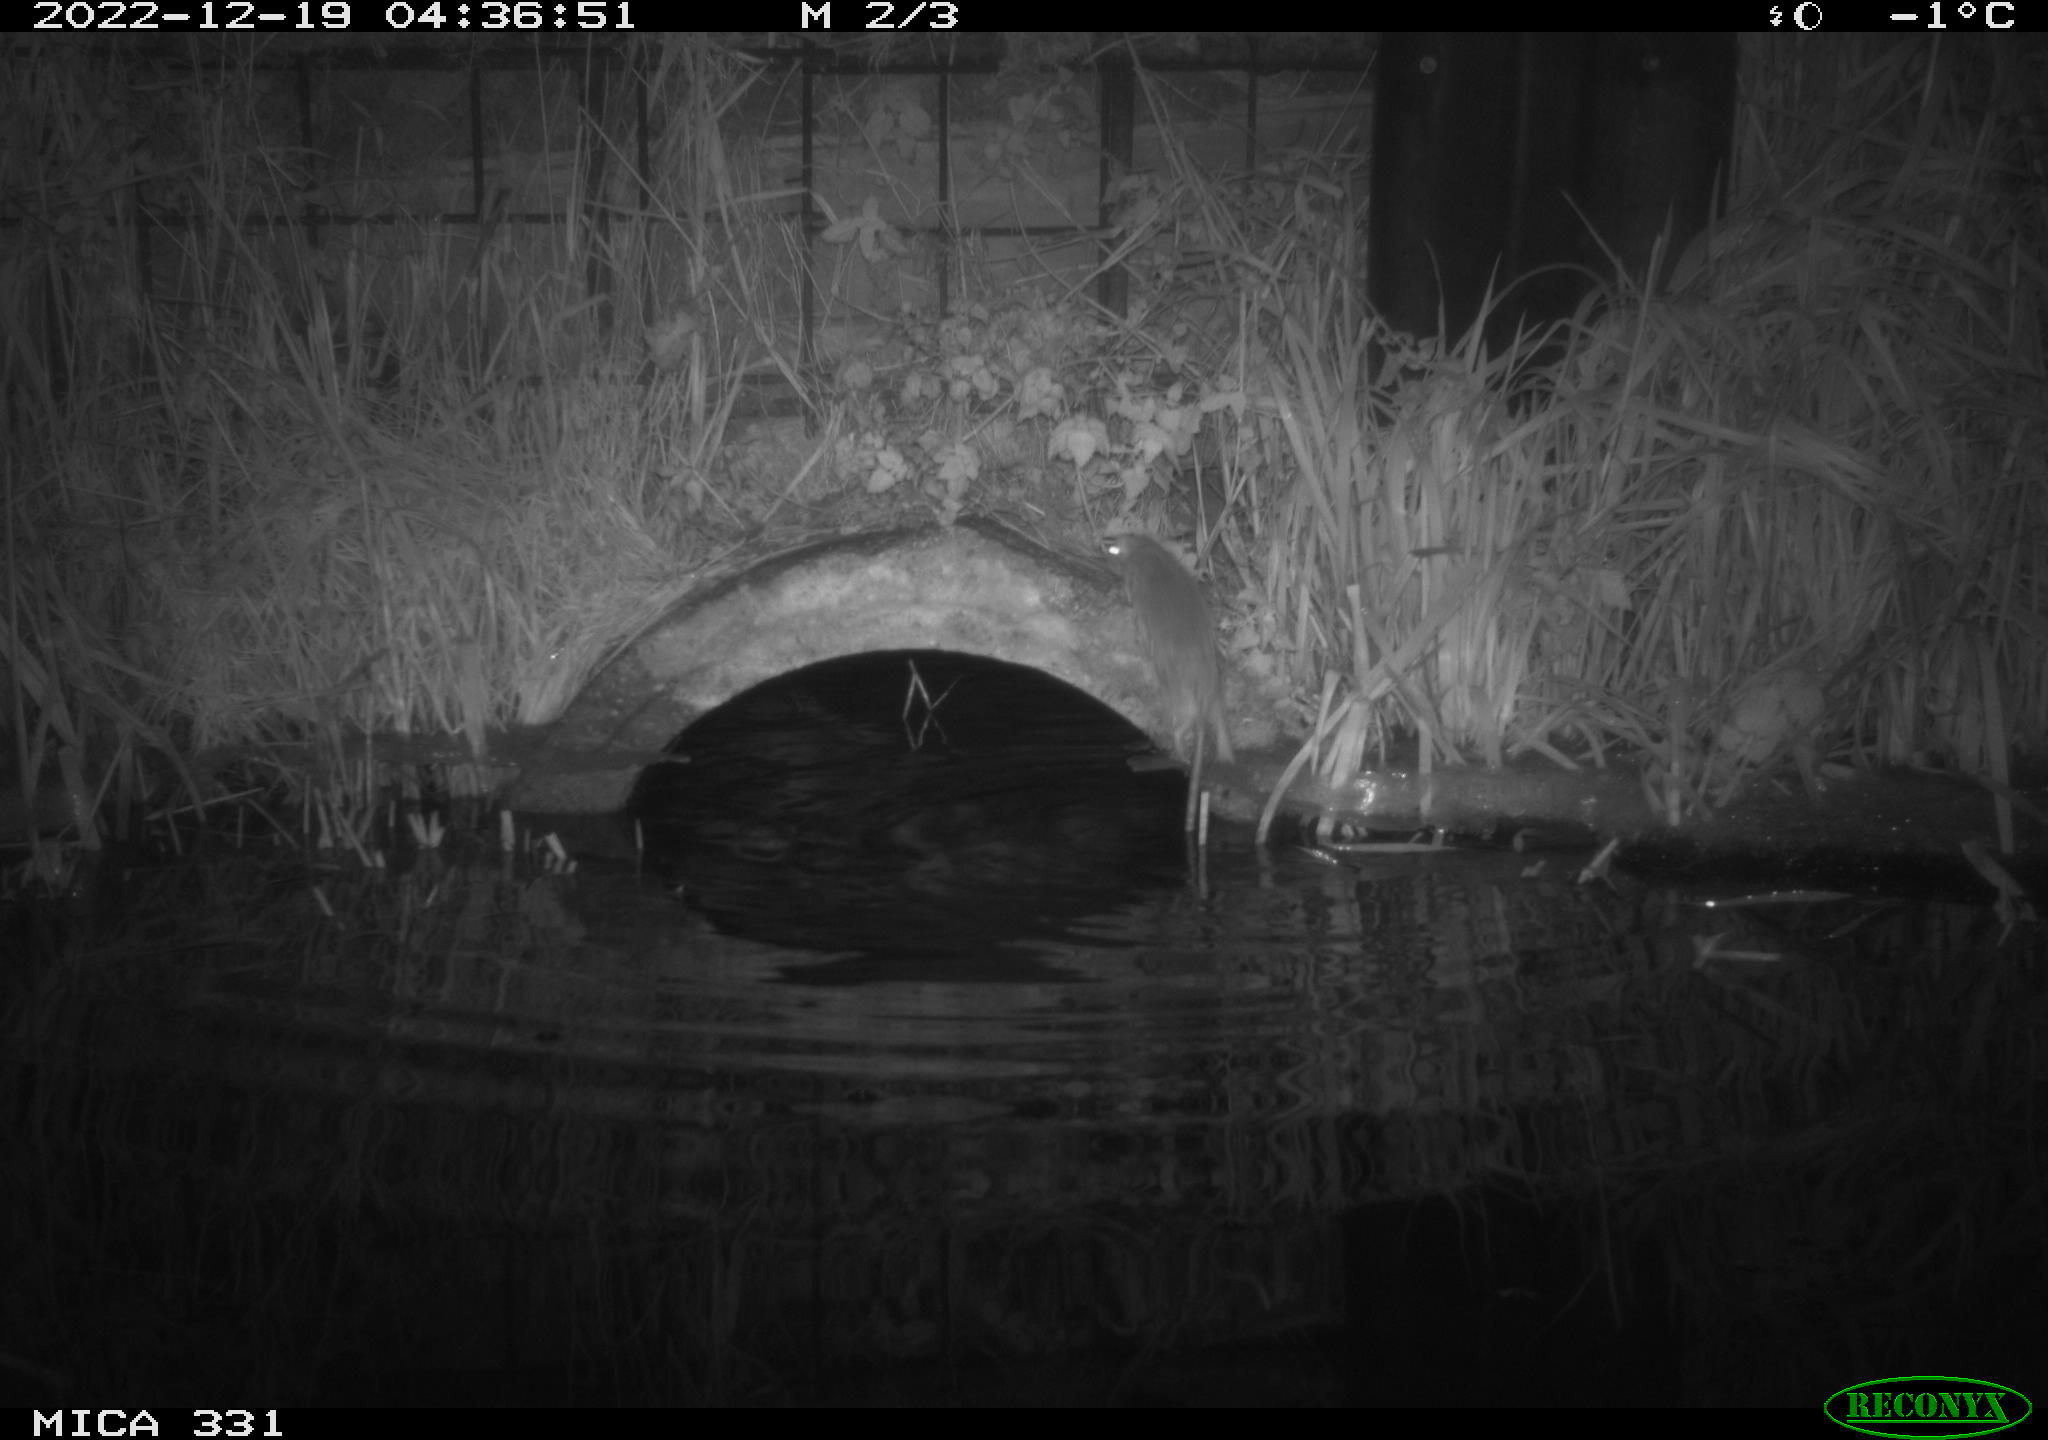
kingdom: Animalia
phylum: Chordata
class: Mammalia
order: Rodentia
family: Muridae
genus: Rattus
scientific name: Rattus norvegicus
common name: Brown rat
